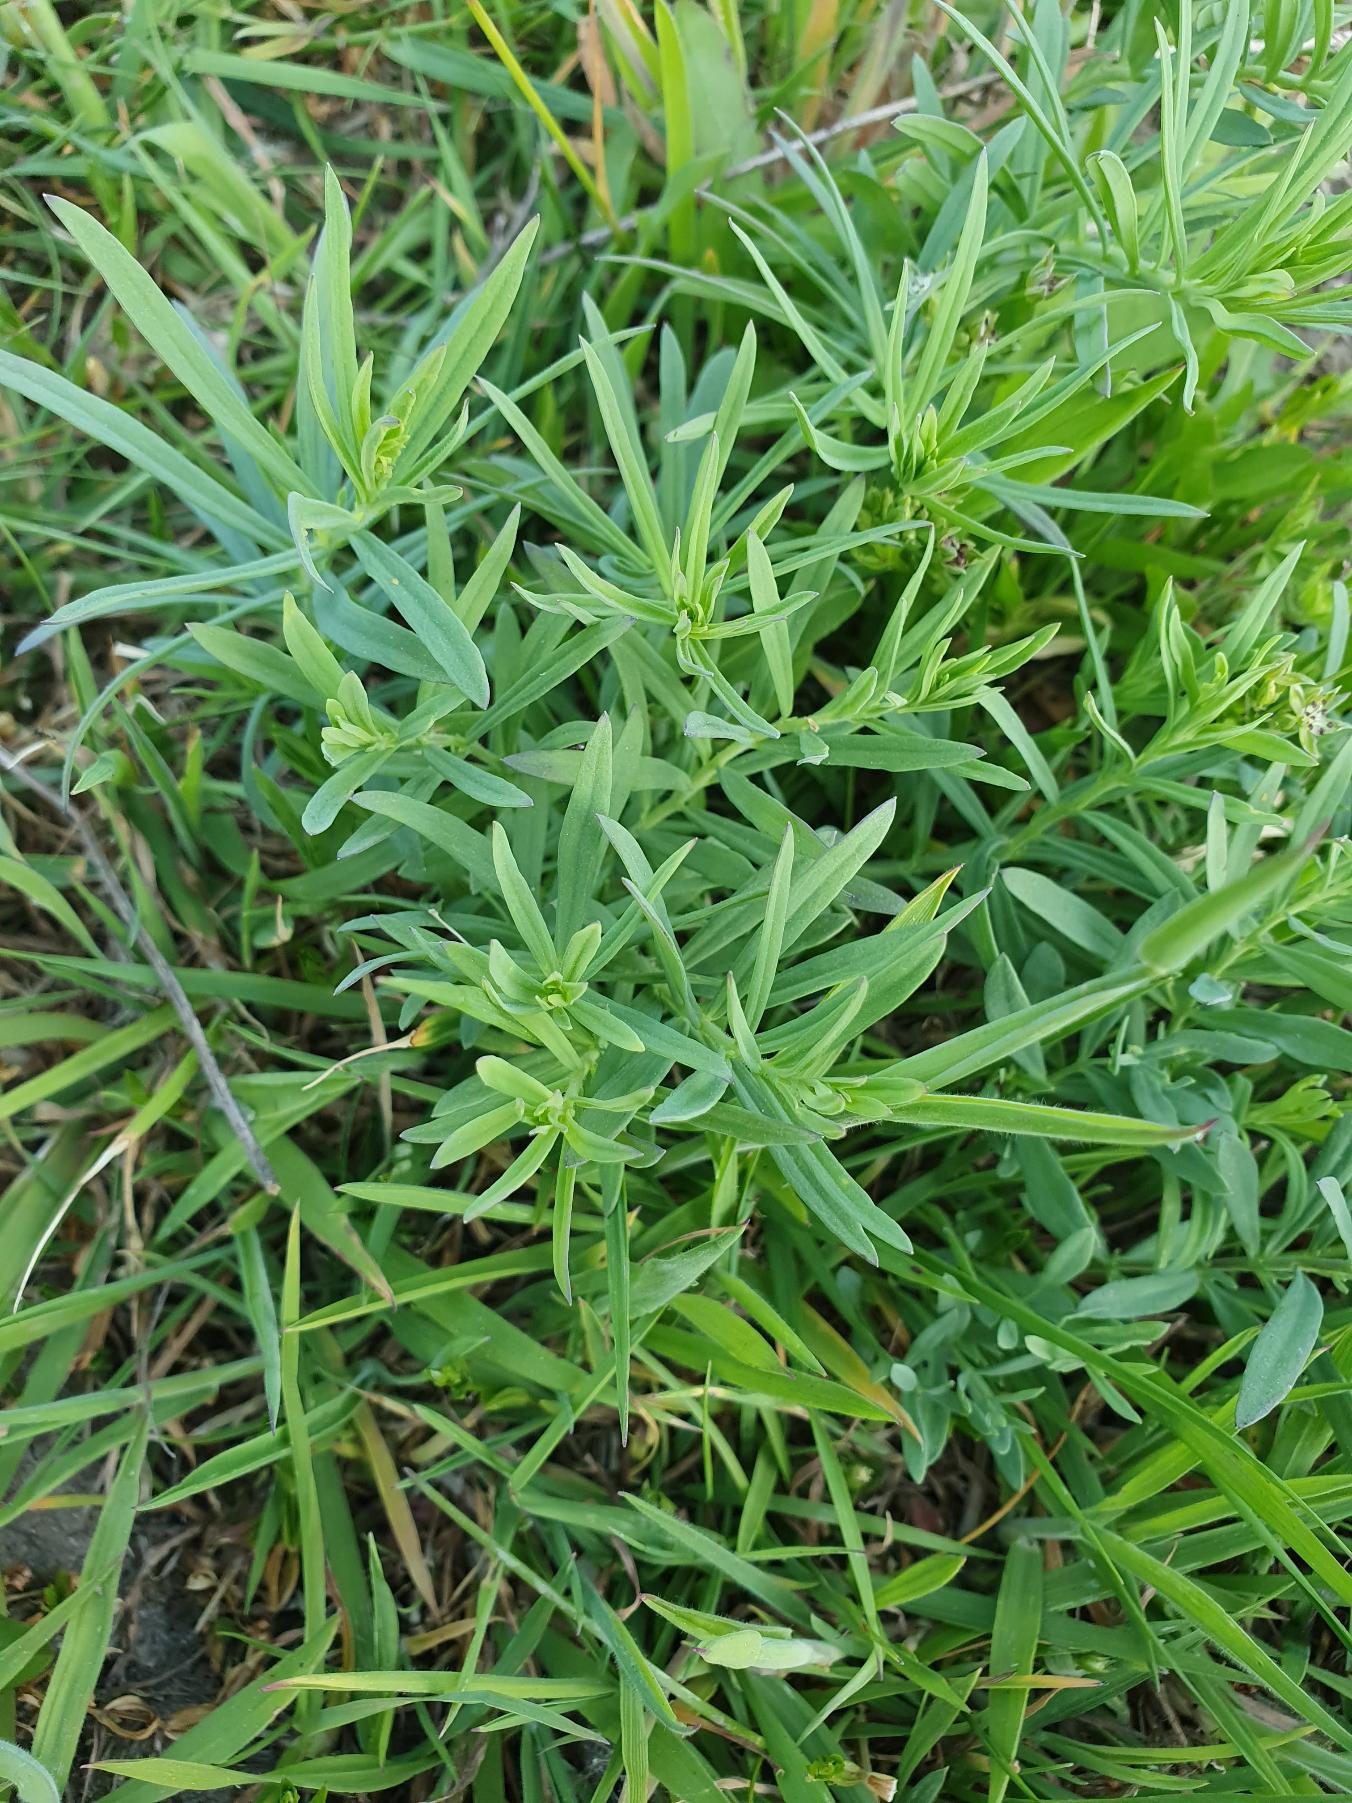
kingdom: Plantae
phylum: Tracheophyta
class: Magnoliopsida
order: Lamiales
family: Plantaginaceae
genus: Linaria
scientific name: Linaria vulgaris
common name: Almindelig torskemund
